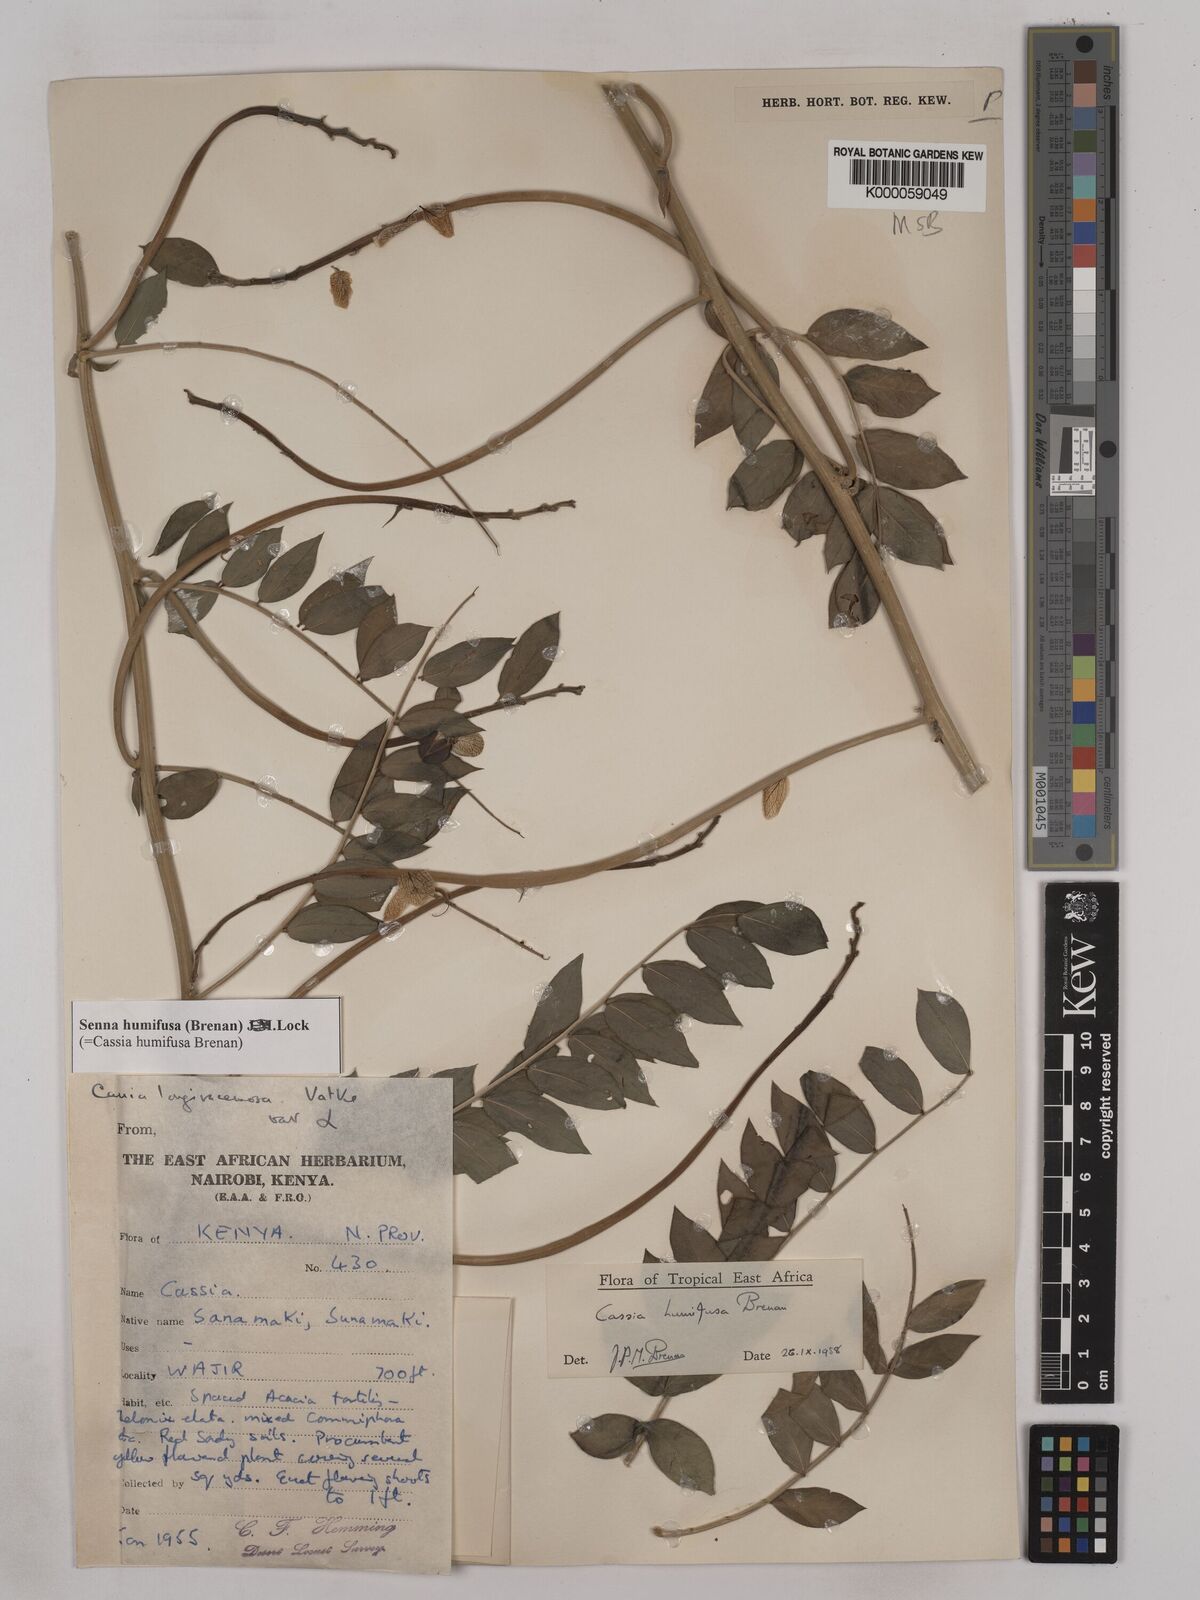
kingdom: Plantae
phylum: Tracheophyta
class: Magnoliopsida
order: Fabales
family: Fabaceae
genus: Senna
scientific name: Senna humifusa
